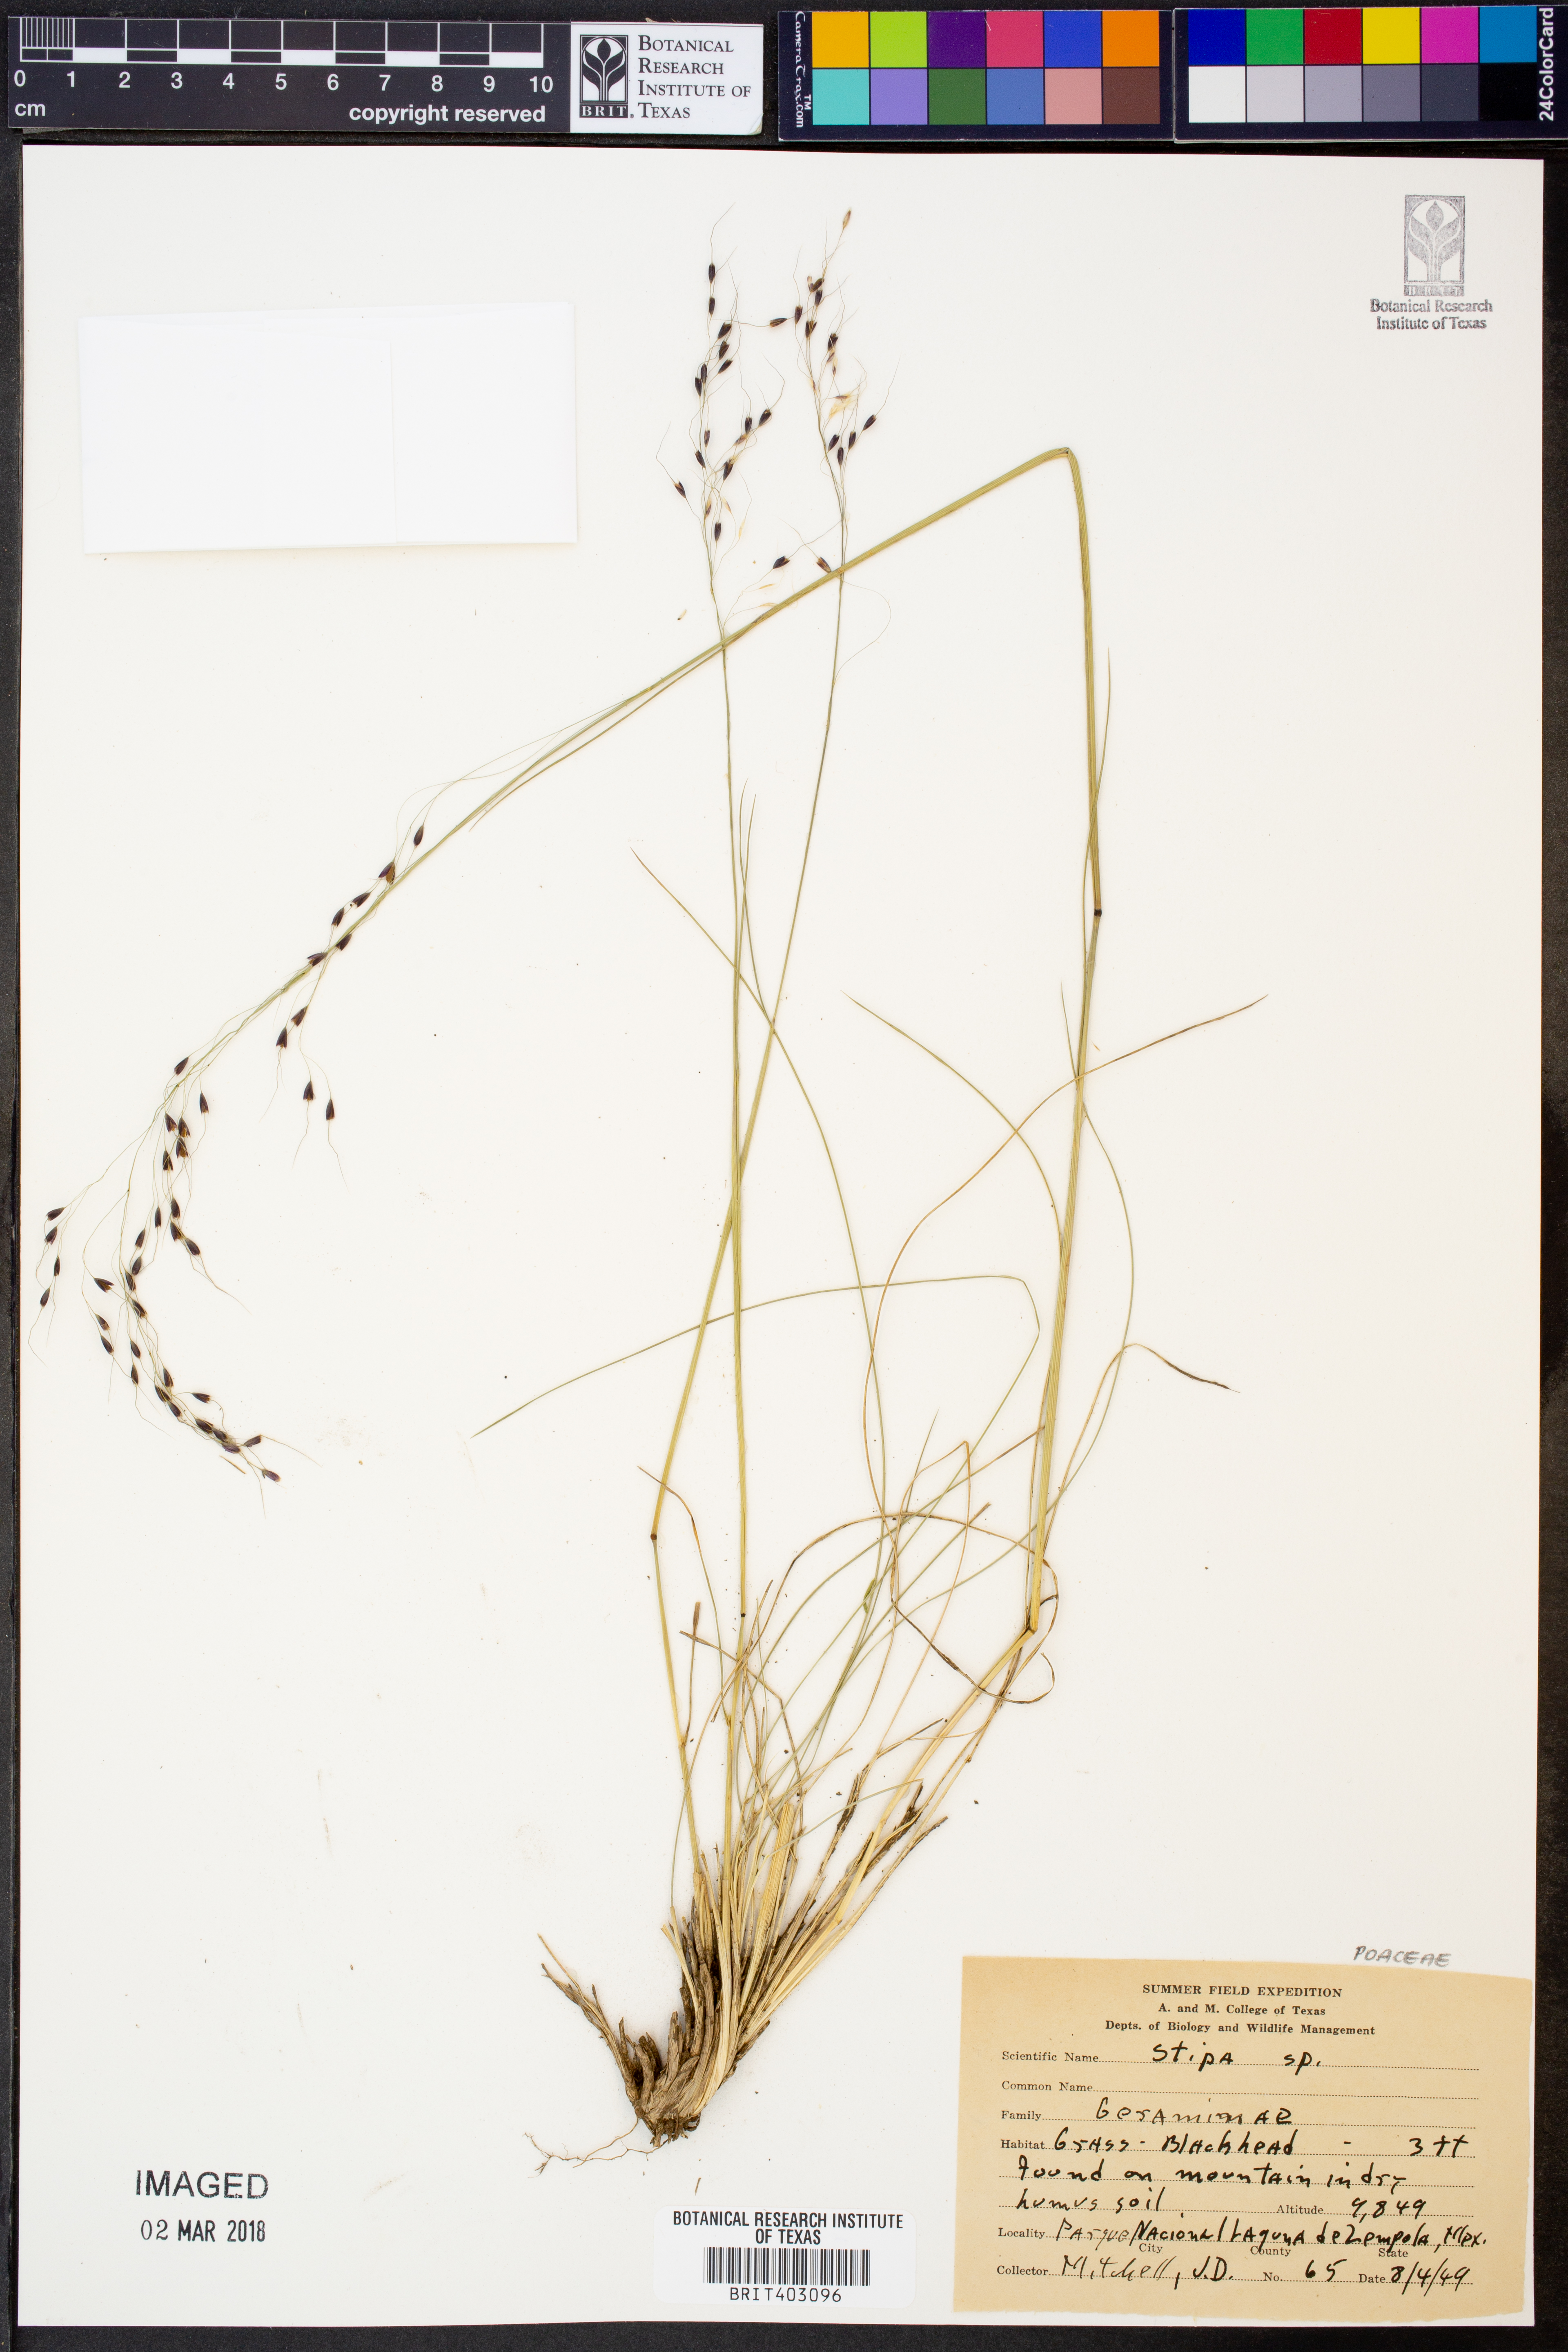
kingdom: Plantae
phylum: Tracheophyta
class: Liliopsida
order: Poales
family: Poaceae
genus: Stipa
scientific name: Stipa
